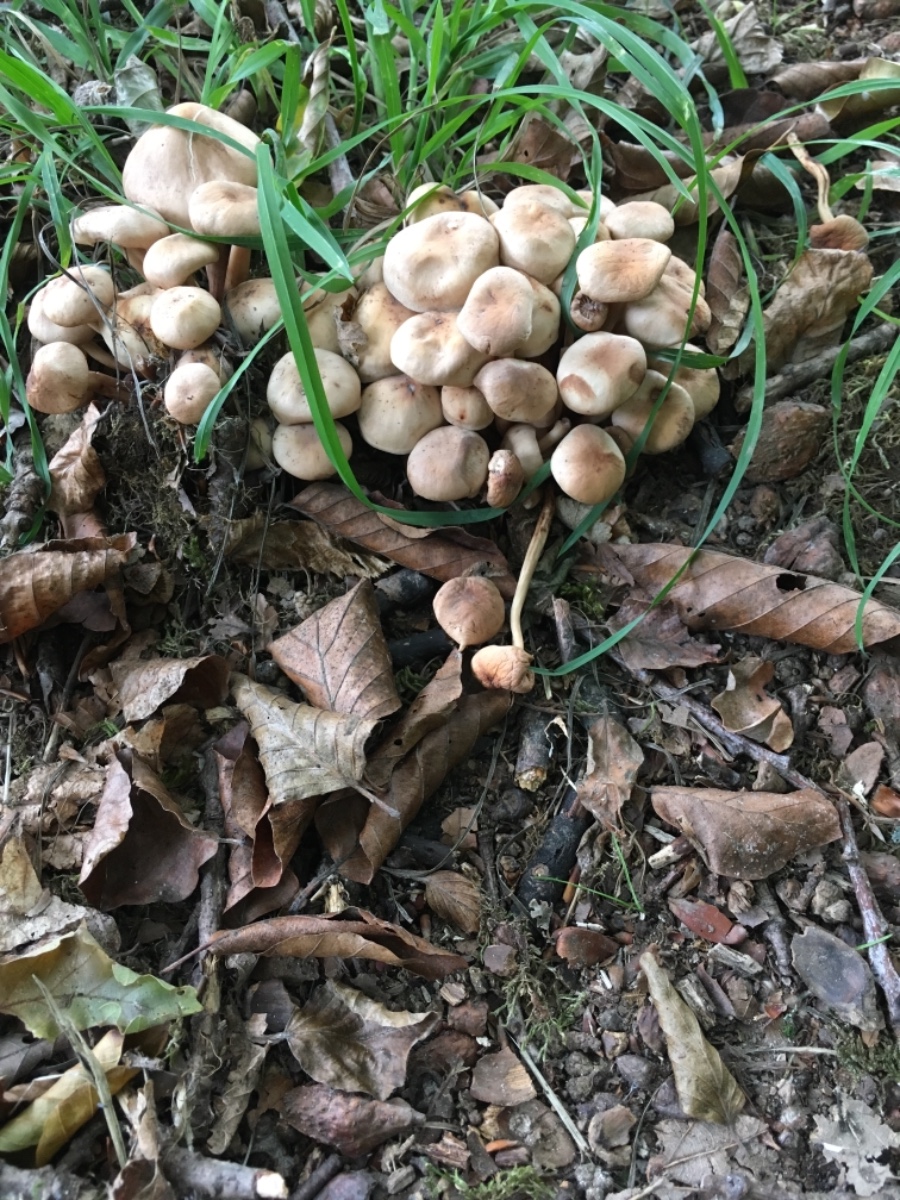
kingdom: Fungi
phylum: Basidiomycota
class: Agaricomycetes
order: Agaricales
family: Omphalotaceae
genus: Gymnopus
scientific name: Gymnopus fusipes
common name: tenstokket fladhat
